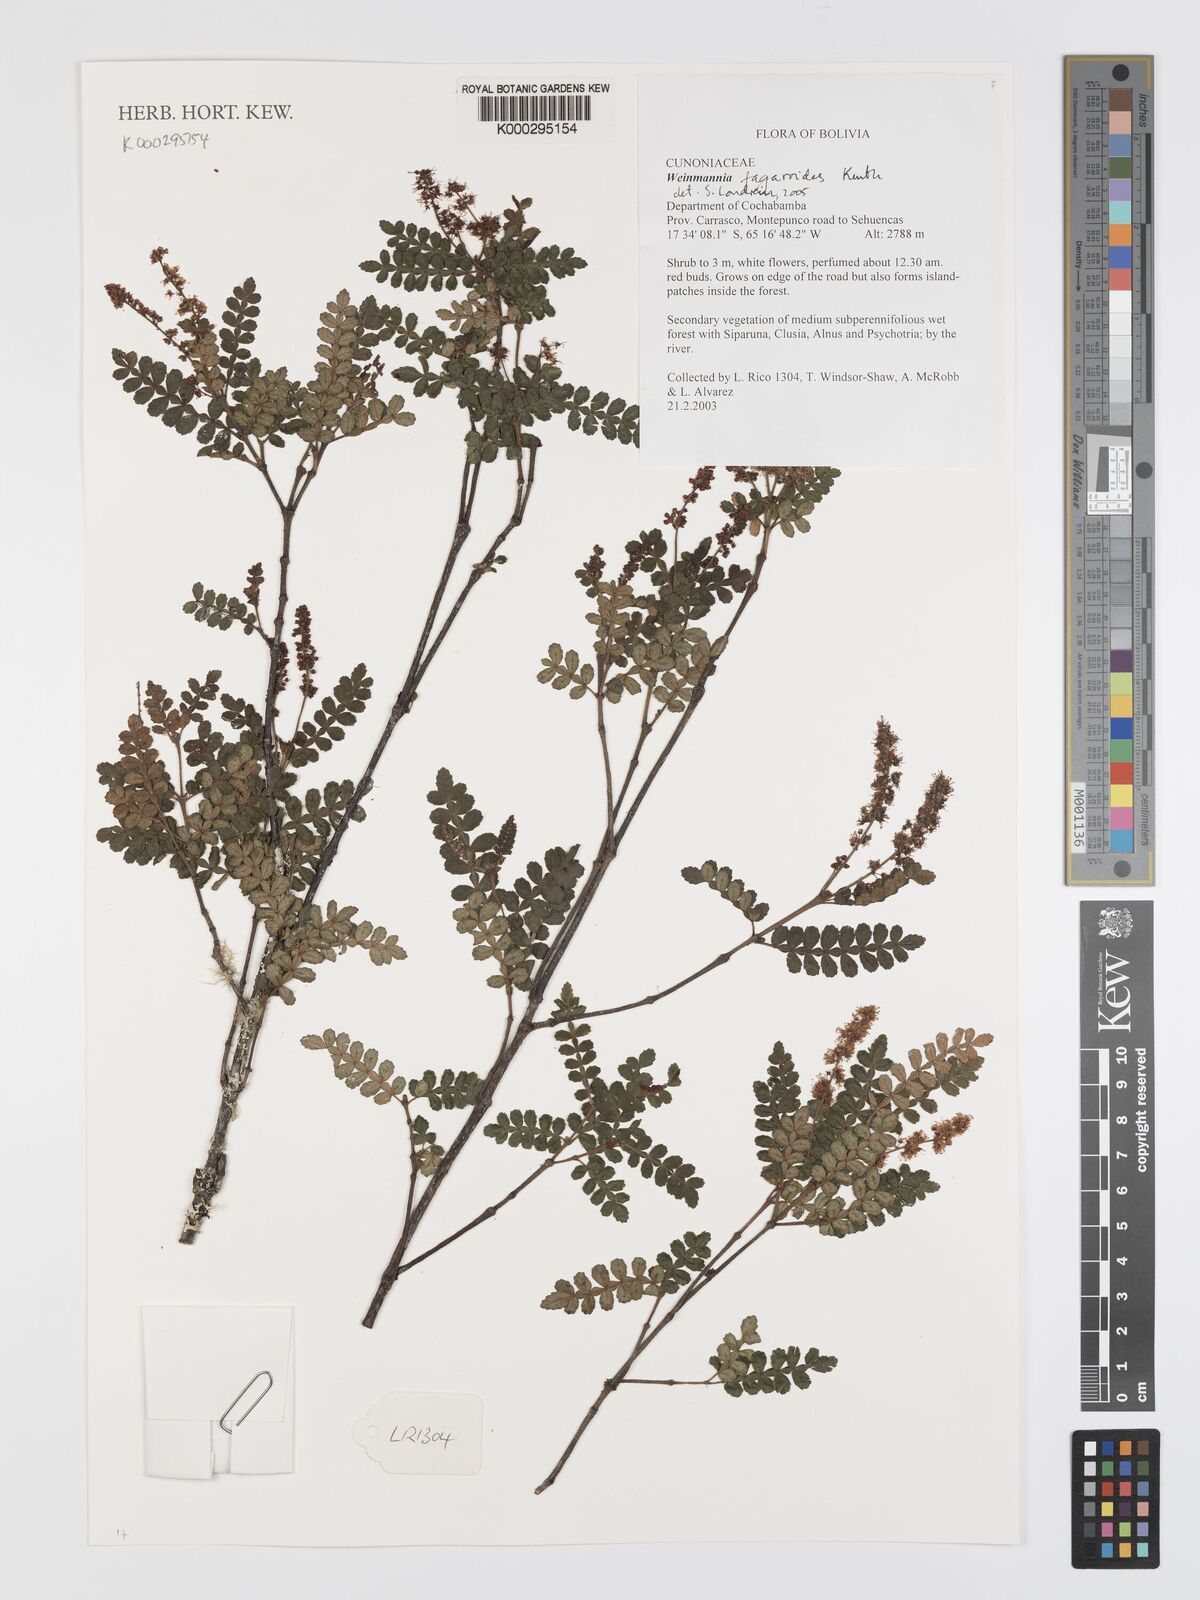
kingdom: Plantae
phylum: Tracheophyta
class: Magnoliopsida
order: Oxalidales
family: Cunoniaceae
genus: Weinmannia
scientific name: Weinmannia fagaroides
